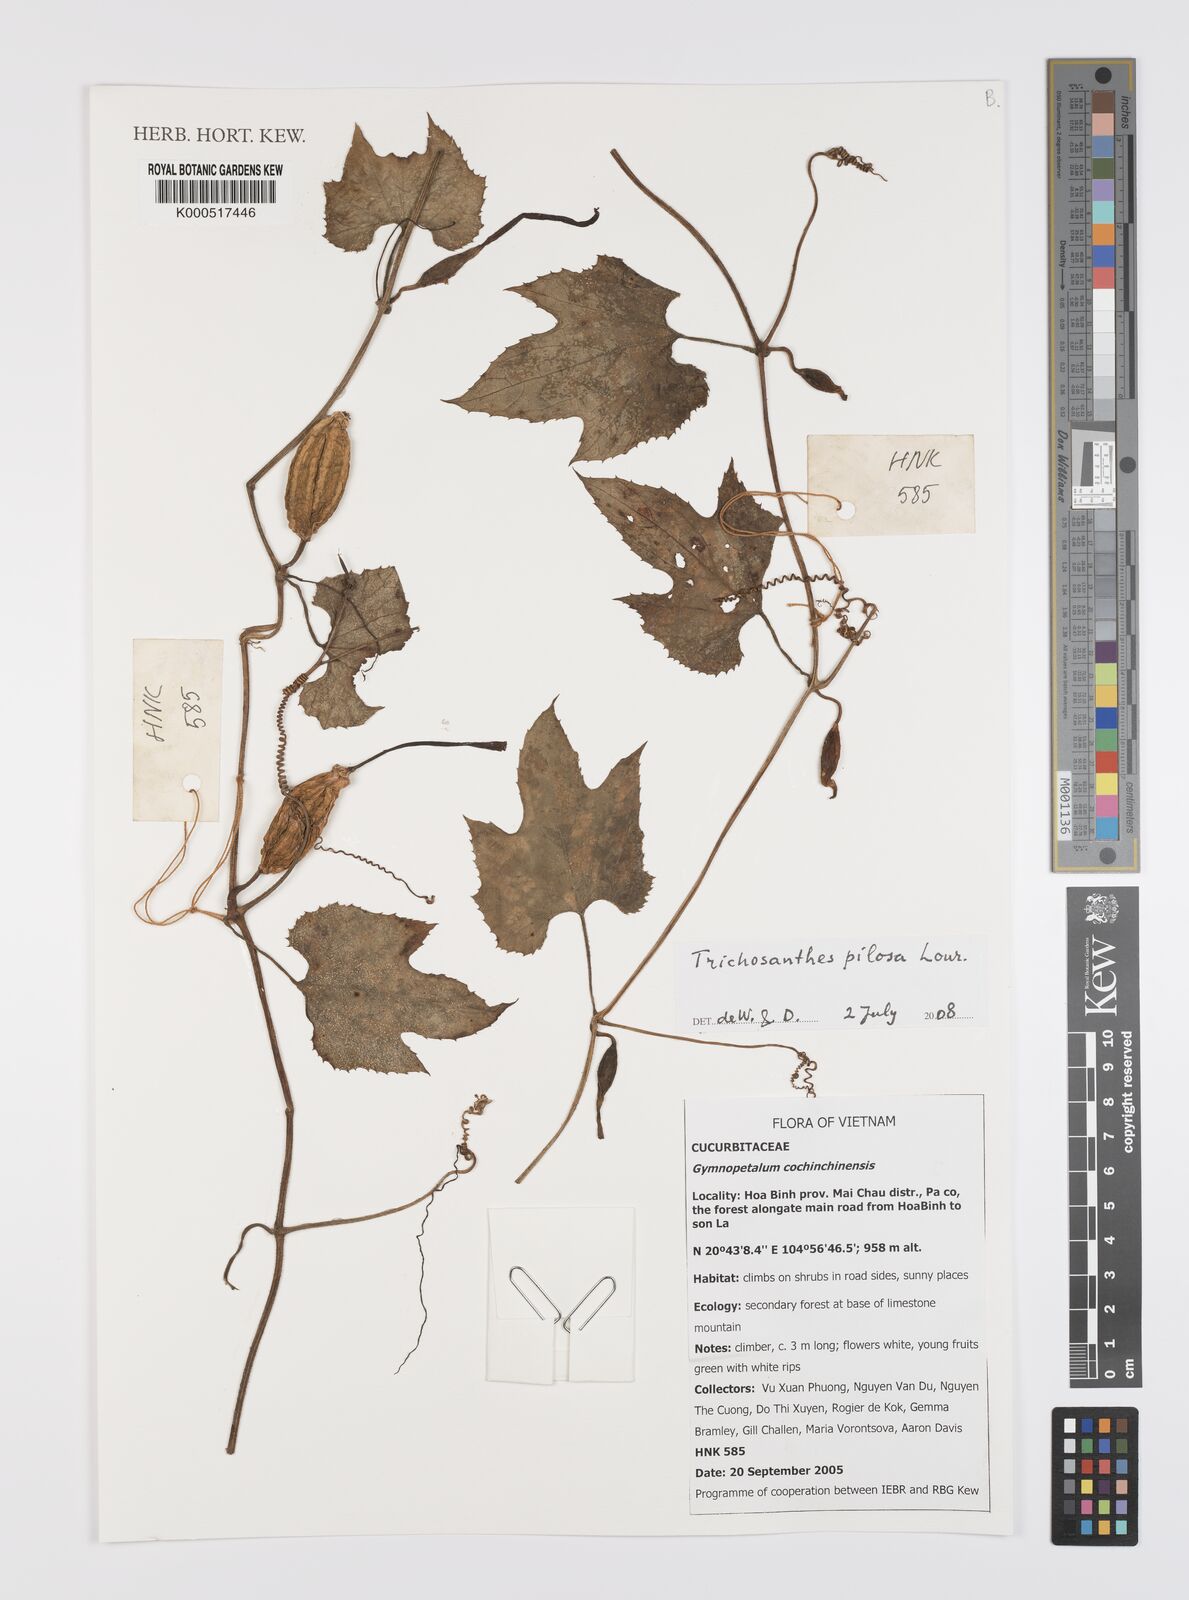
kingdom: Plantae
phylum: Tracheophyta
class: Magnoliopsida
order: Cucurbitales
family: Cucurbitaceae
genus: Trichosanthes
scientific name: Trichosanthes pilosa
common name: Snake gourd
